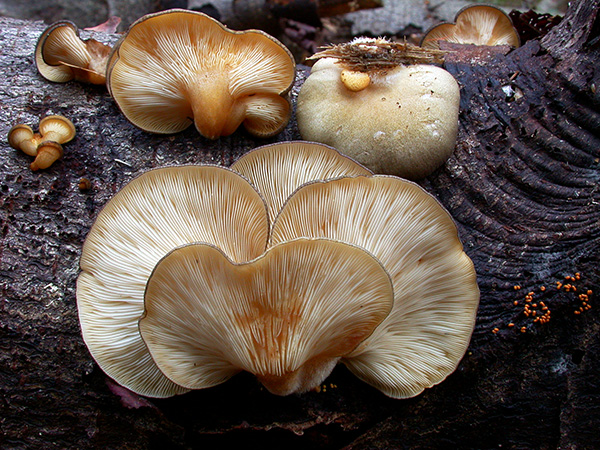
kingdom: Fungi
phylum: Basidiomycota
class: Agaricomycetes
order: Agaricales
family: Sarcomyxaceae
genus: Sarcomyxa
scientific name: Sarcomyxa serotina
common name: gummihat
